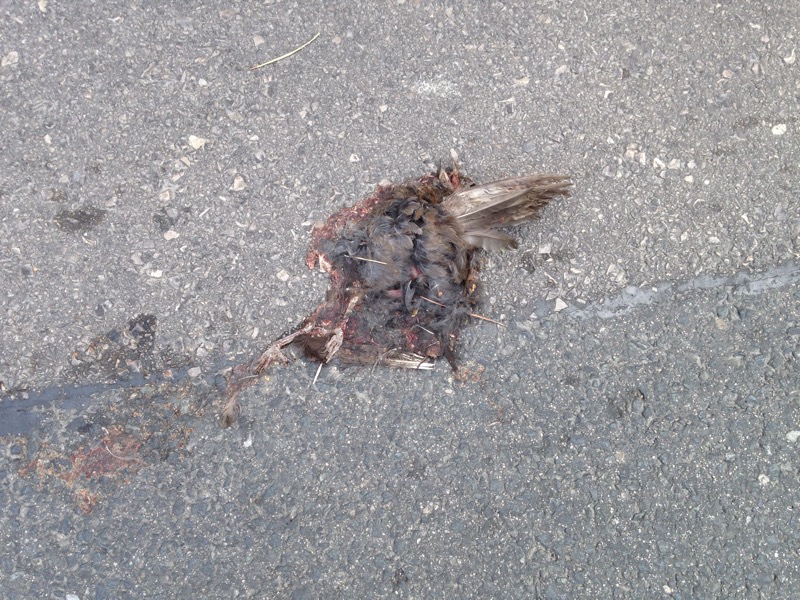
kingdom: Animalia
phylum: Chordata
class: Aves
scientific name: Aves
